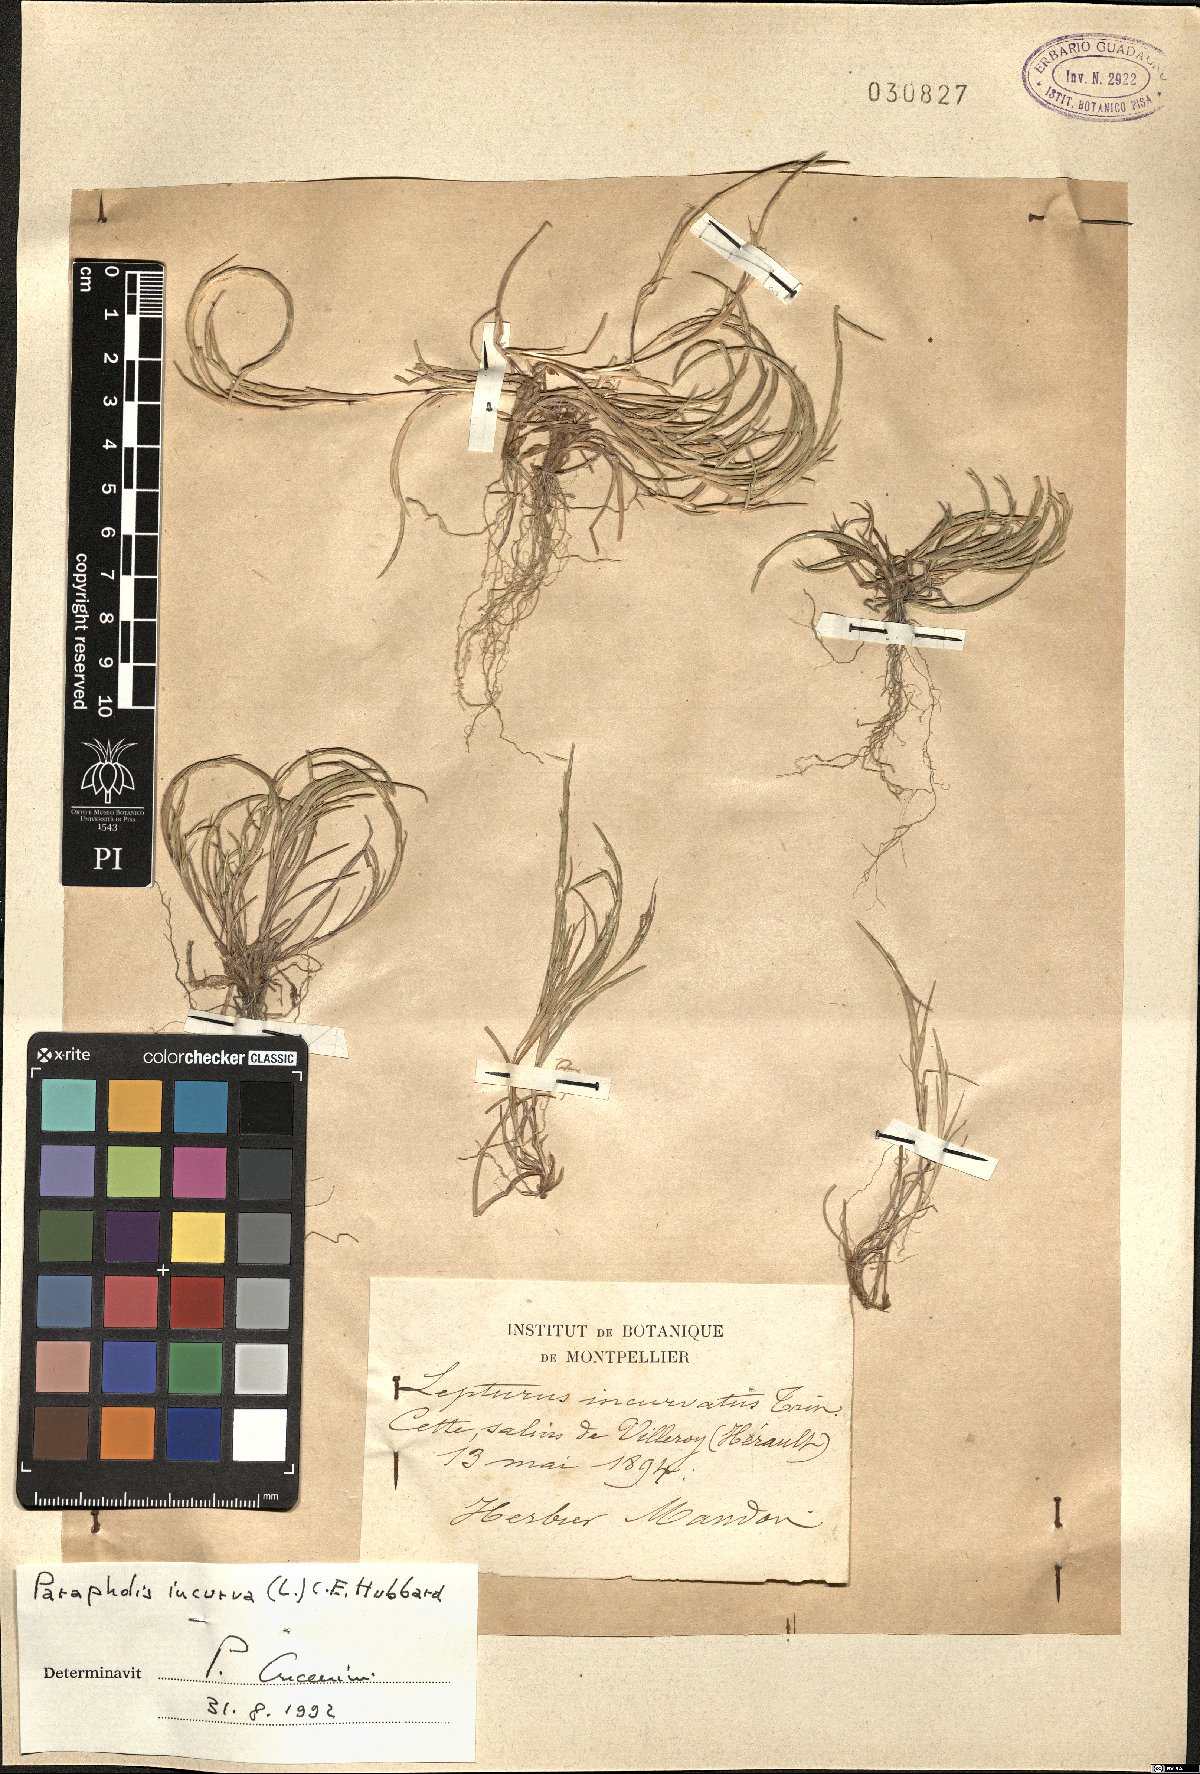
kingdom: Plantae
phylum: Tracheophyta
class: Liliopsida
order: Poales
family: Poaceae
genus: Parapholis
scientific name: Parapholis incurva
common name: Curved sicklegrass
